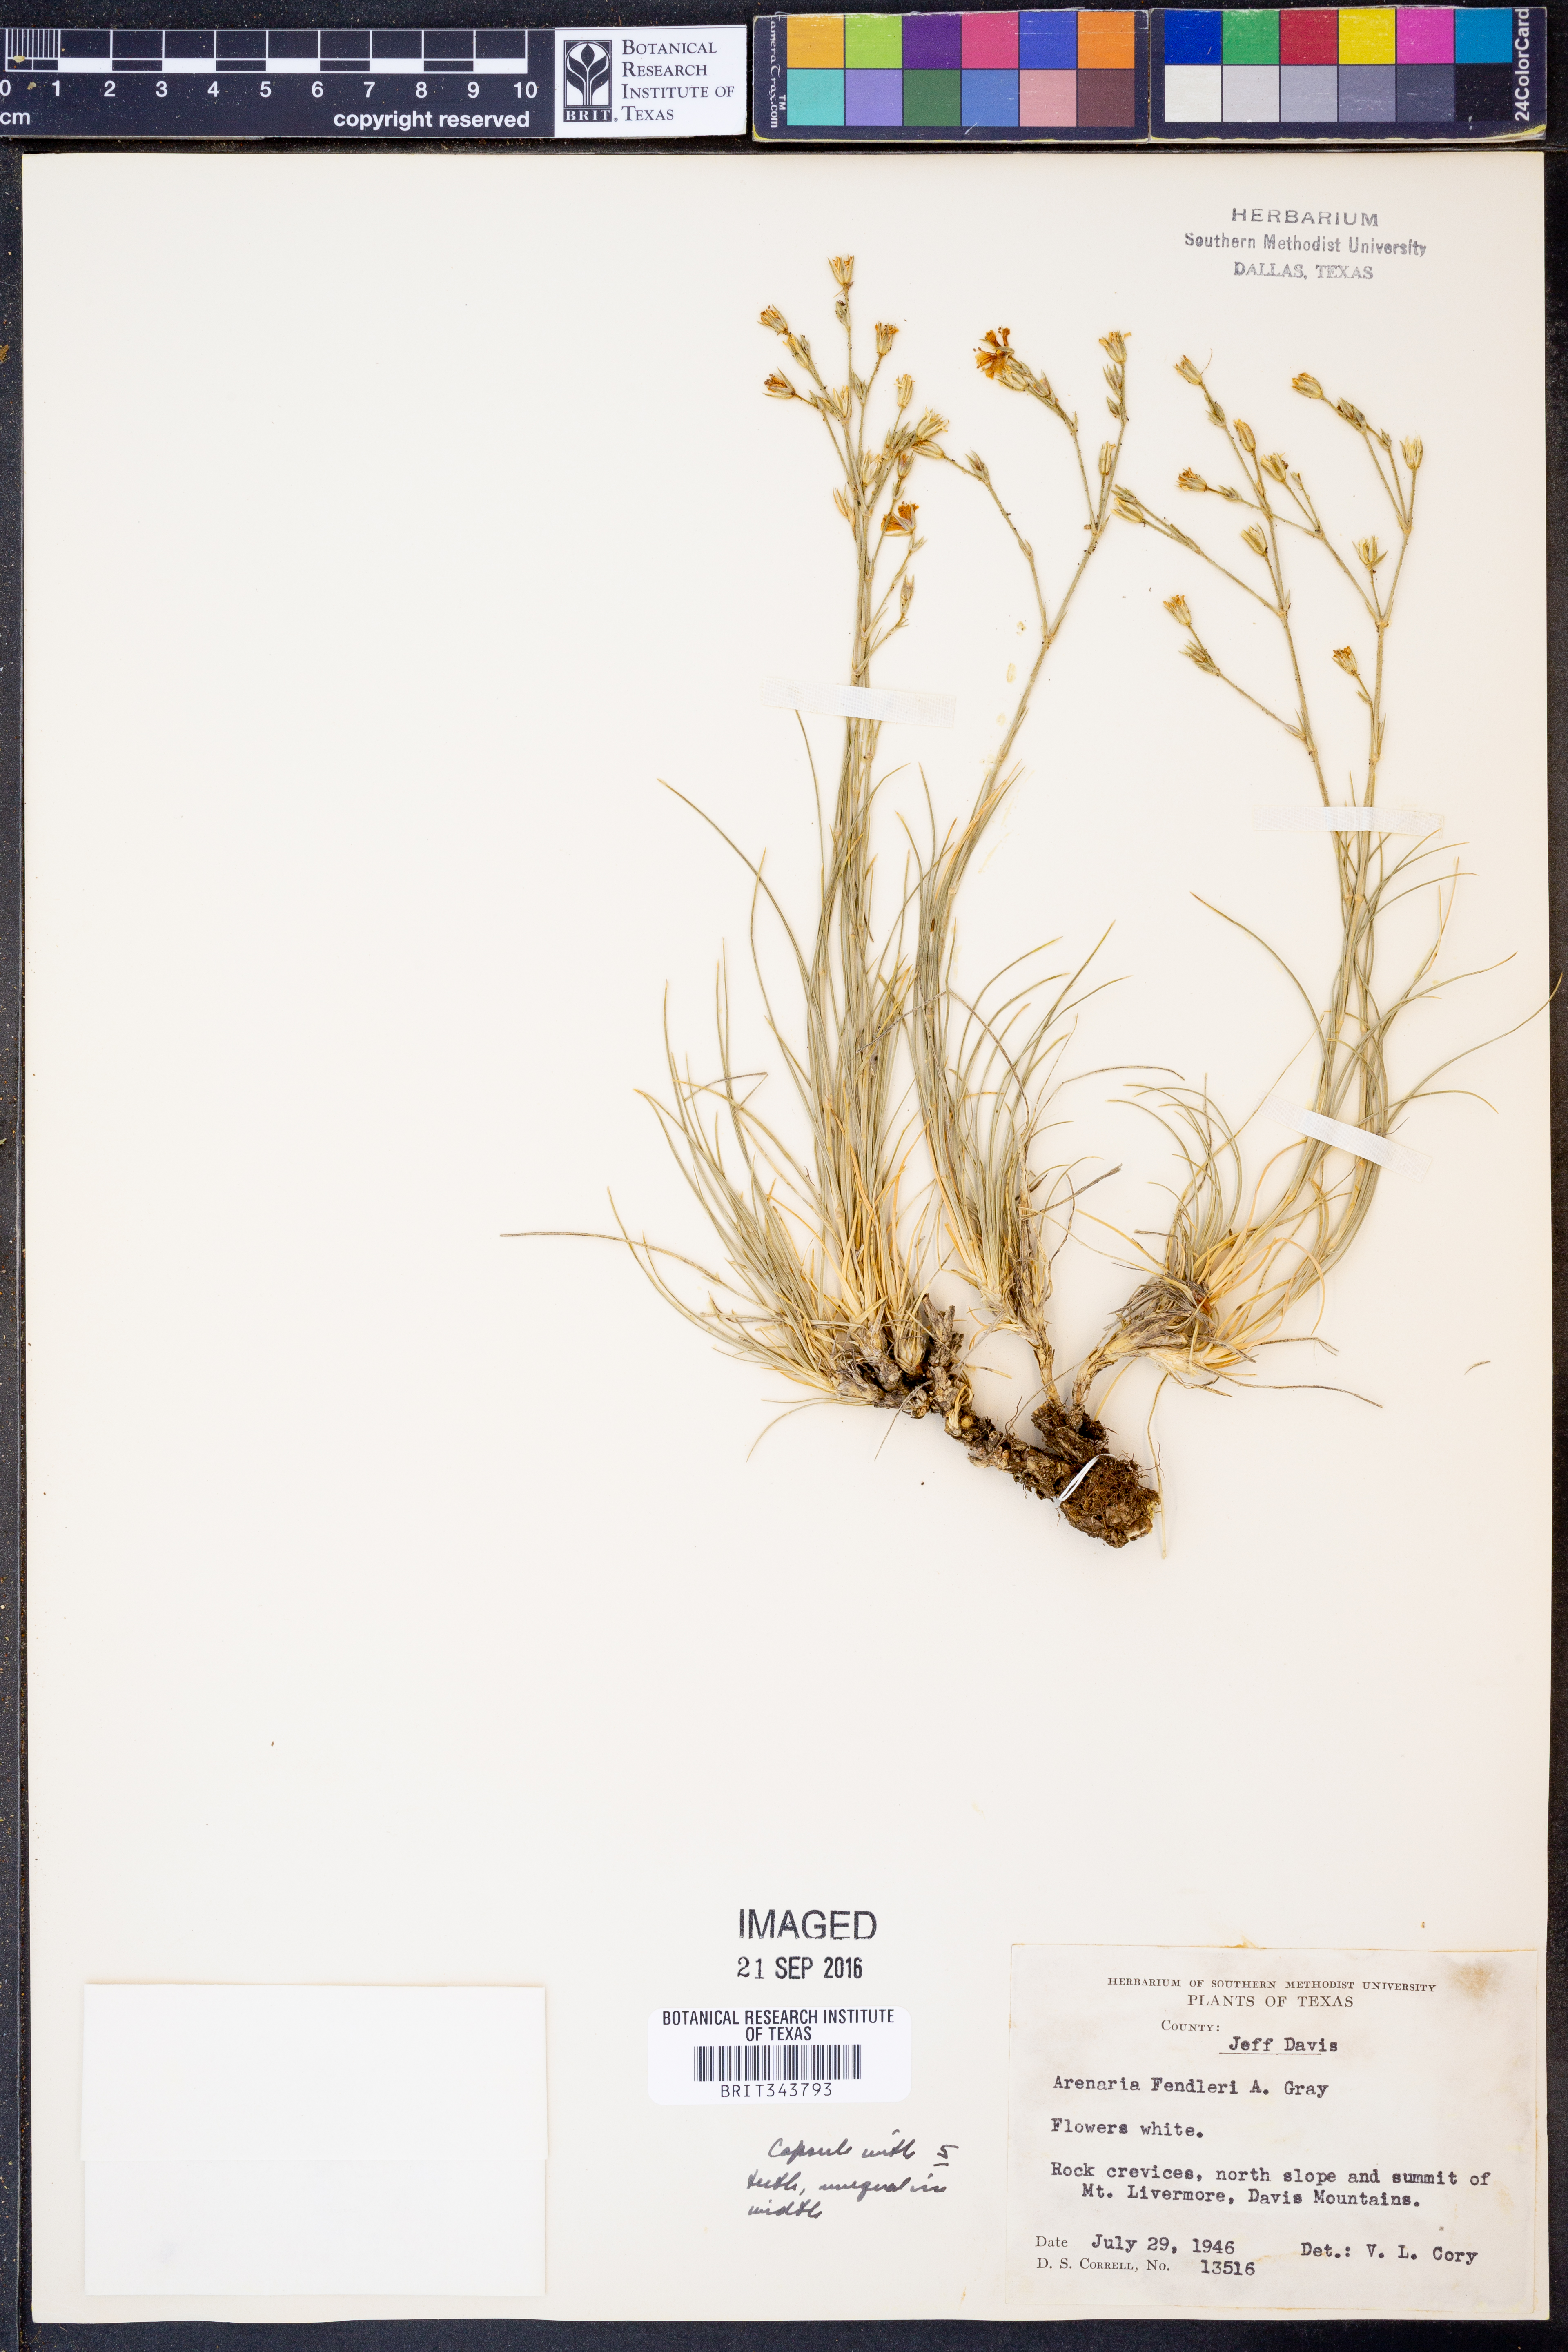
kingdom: Plantae
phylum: Tracheophyta
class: Magnoliopsida
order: Caryophyllales
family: Caryophyllaceae
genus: Eremogone
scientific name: Eremogone fendleri
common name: Fendler's sandwort
